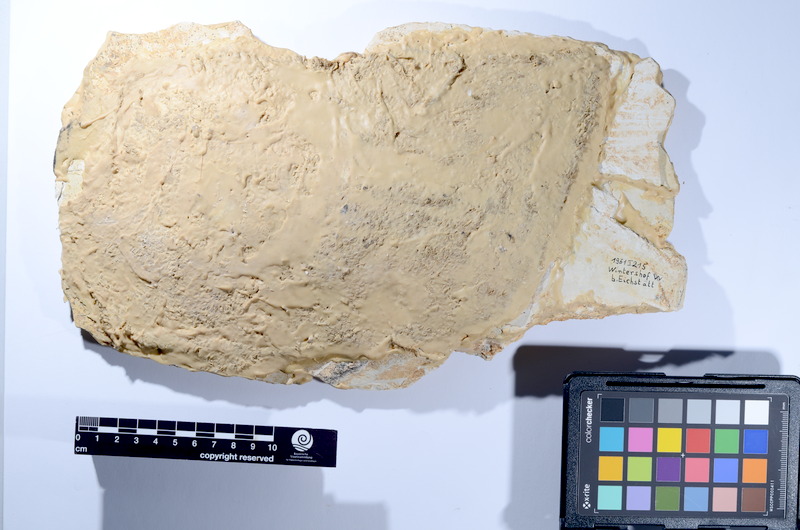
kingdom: Animalia
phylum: Chordata
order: Amiiformes
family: Caturidae
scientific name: Caturidae
